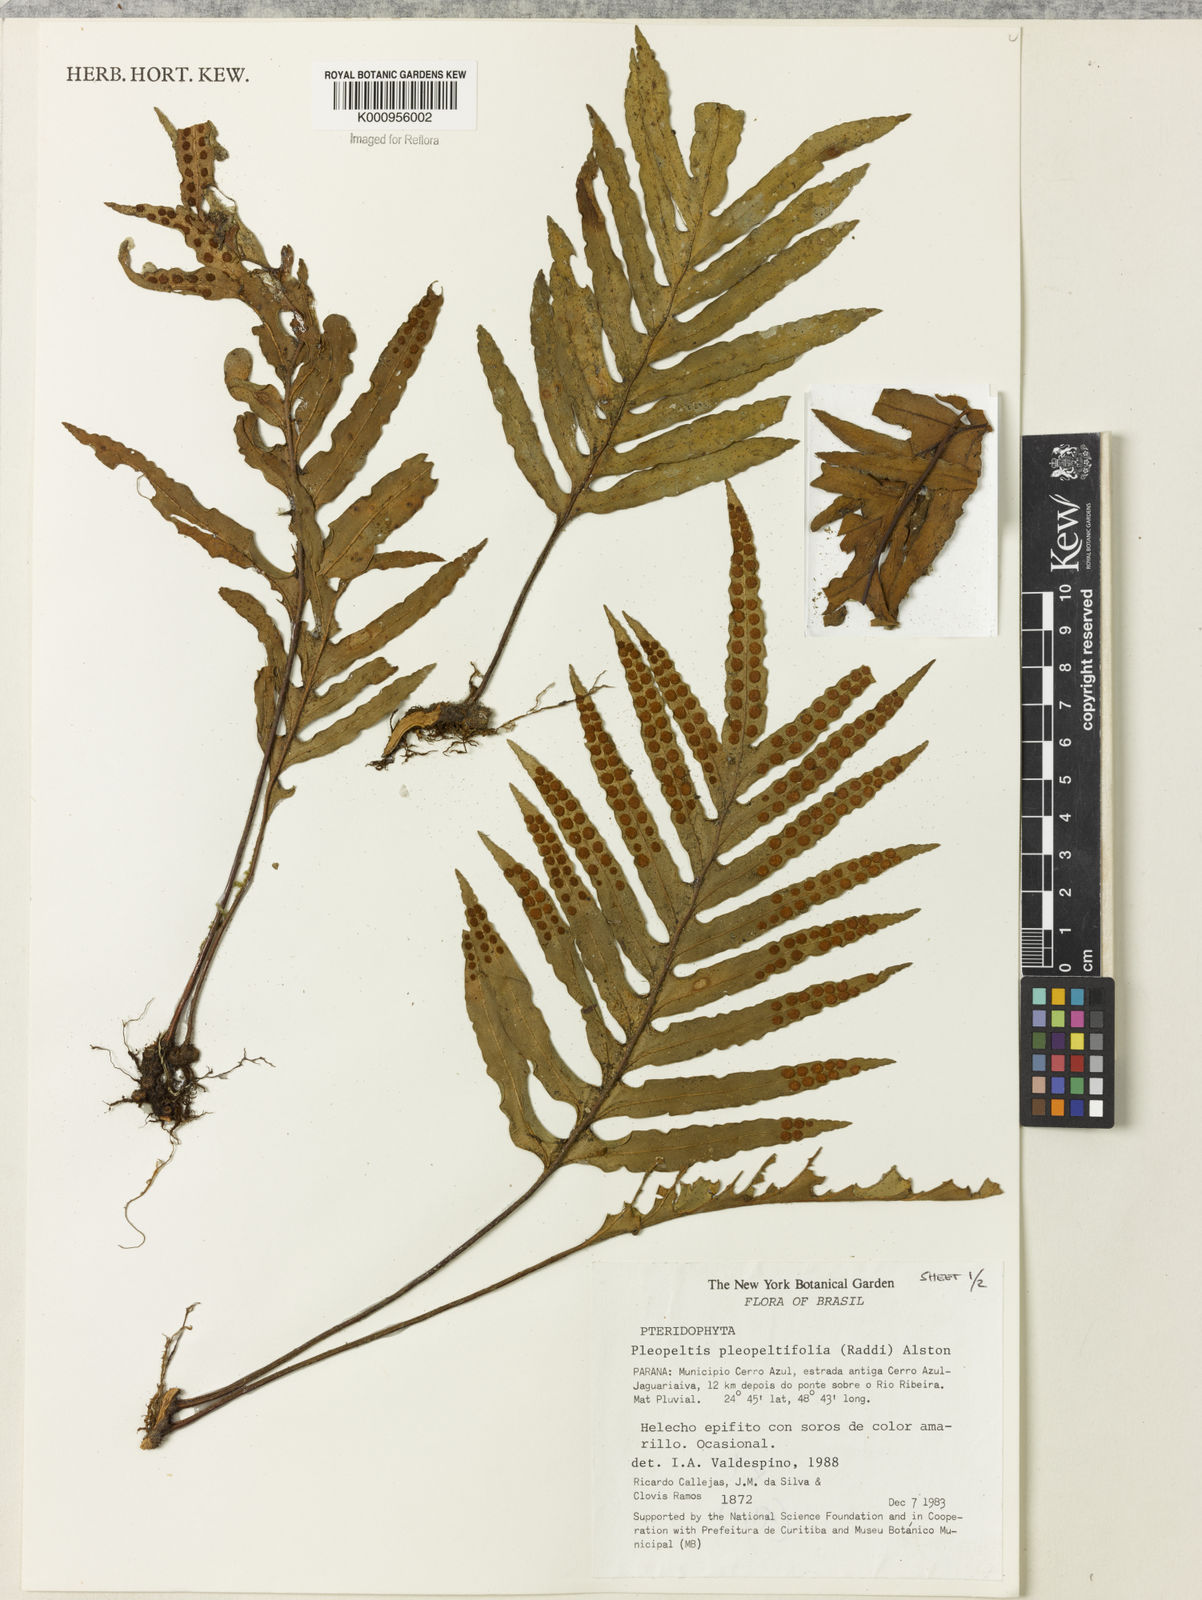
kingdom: Plantae
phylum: Tracheophyta
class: Polypodiopsida
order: Polypodiales
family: Polypodiaceae
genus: Pleopeltis
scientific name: Pleopeltis angusta
